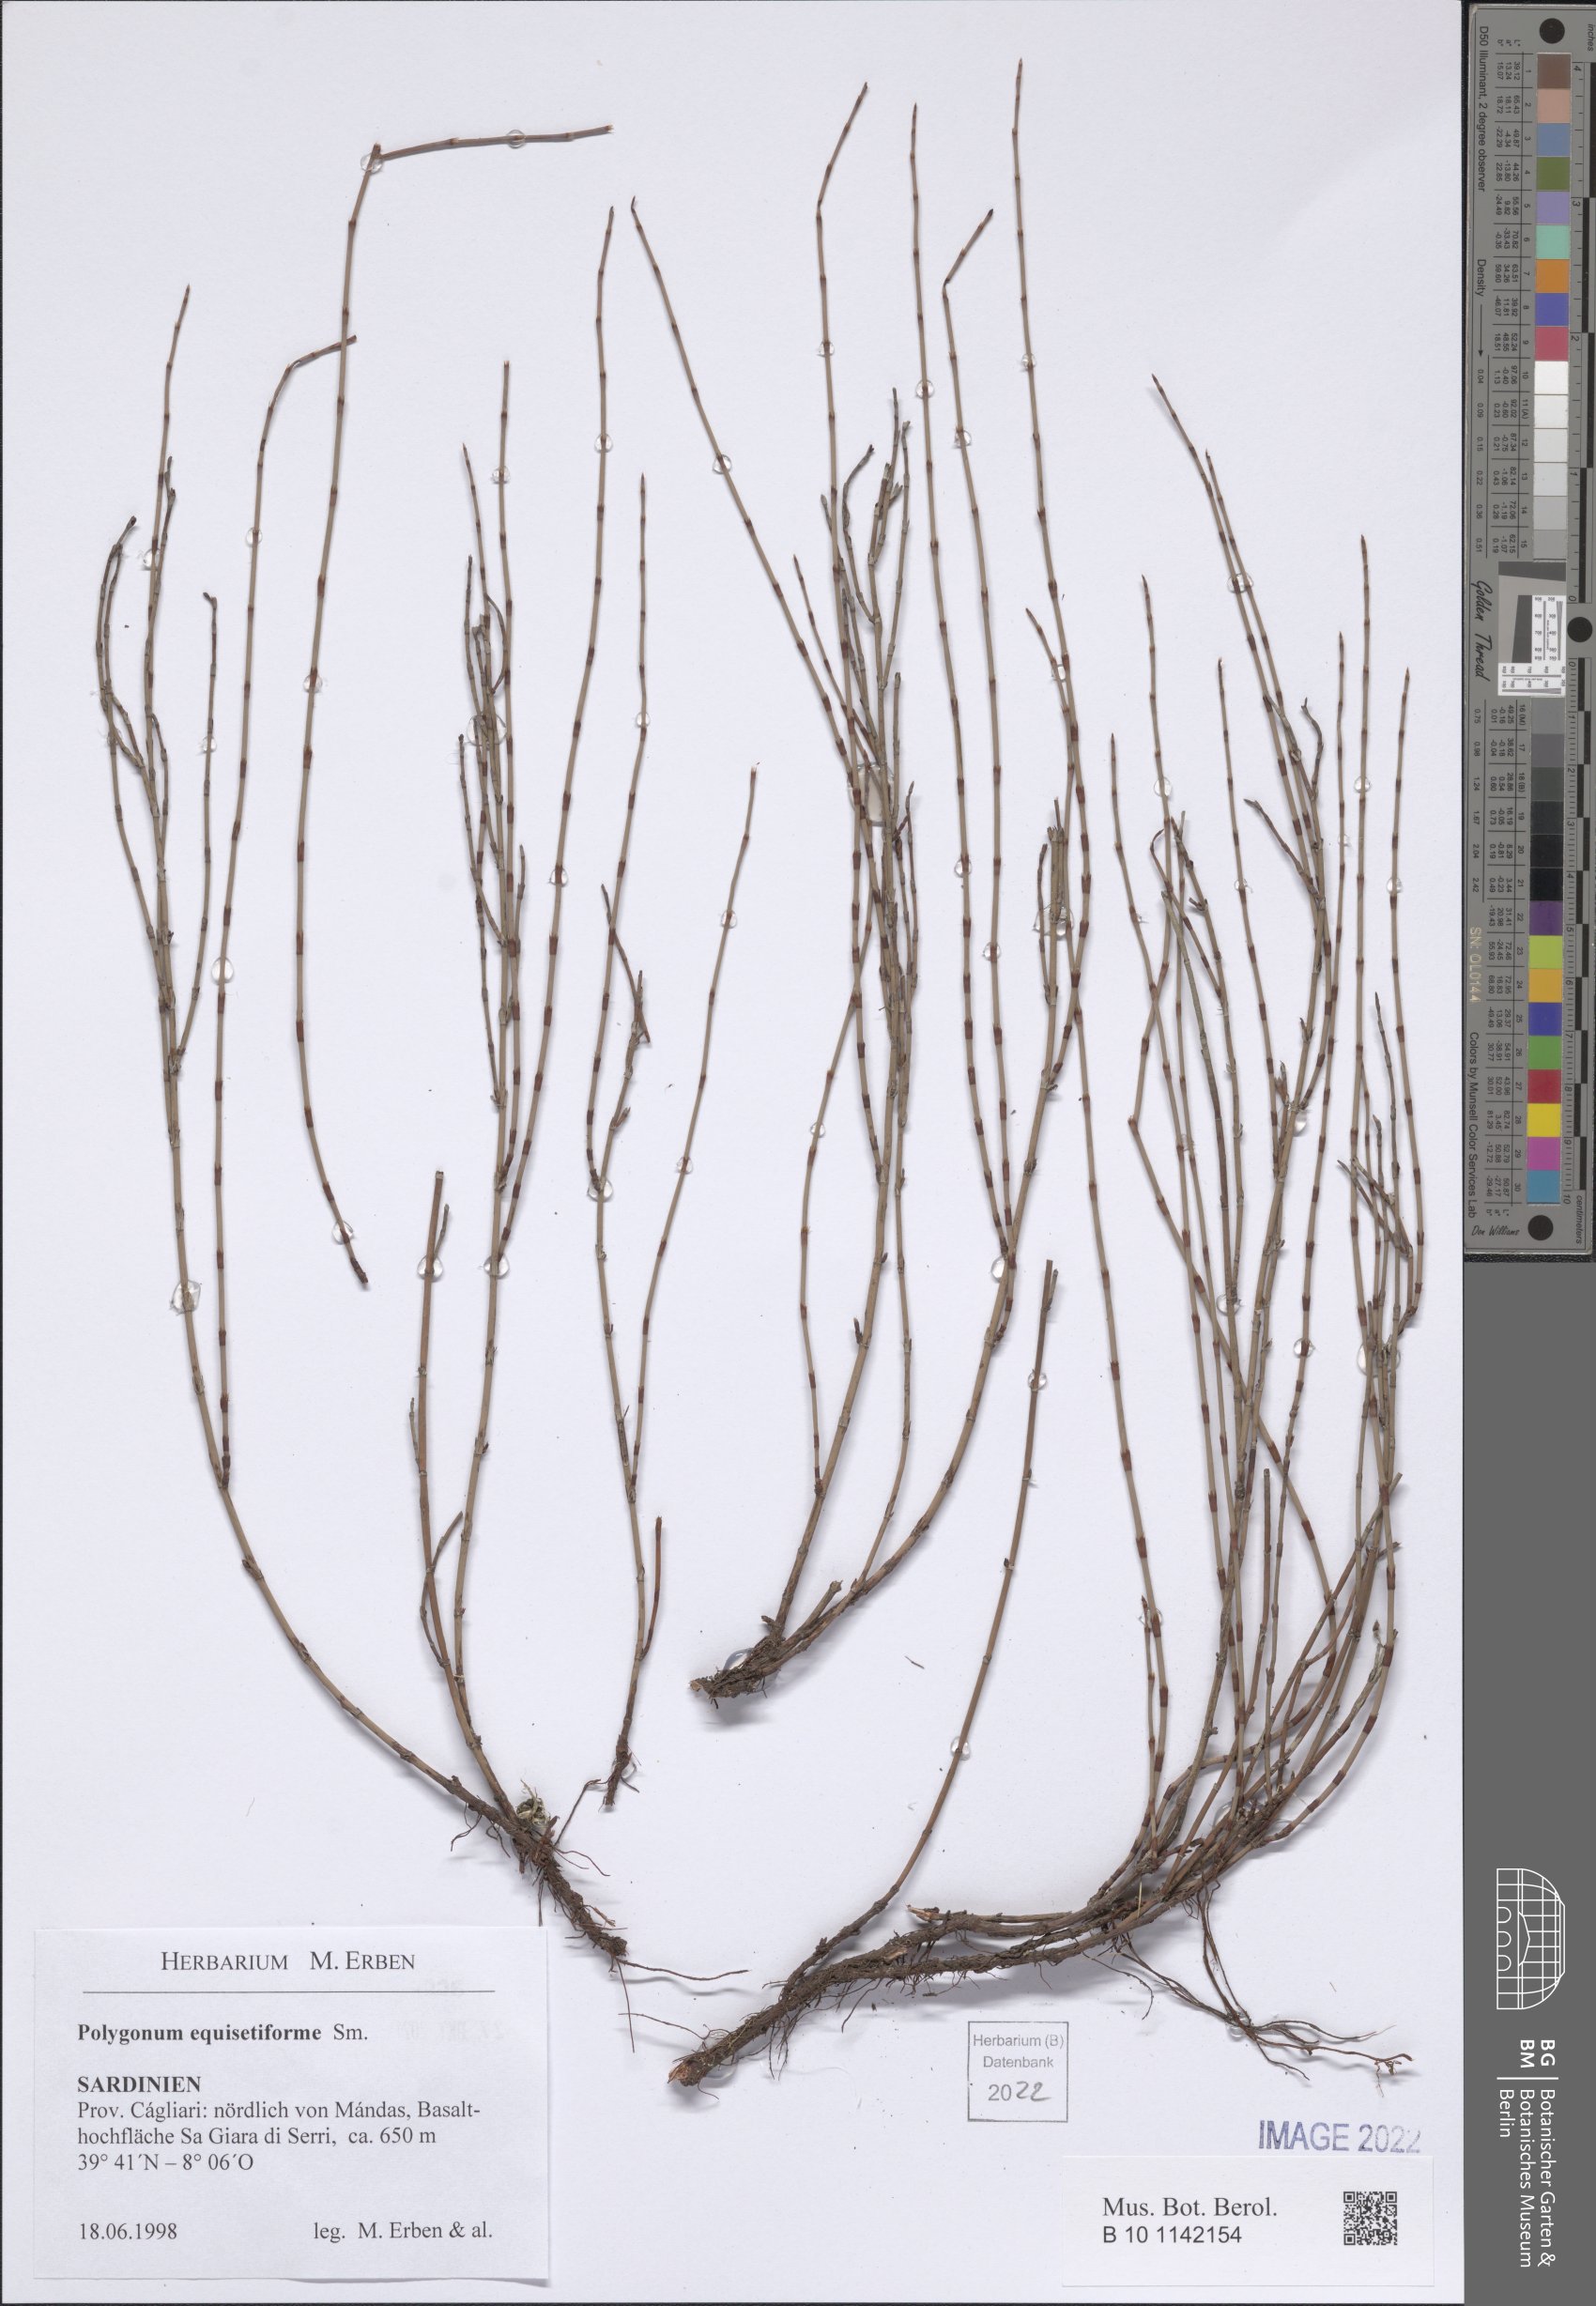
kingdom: Plantae
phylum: Tracheophyta
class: Magnoliopsida
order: Caryophyllales
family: Polygonaceae
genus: Polygonum
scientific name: Polygonum equisetiforme
